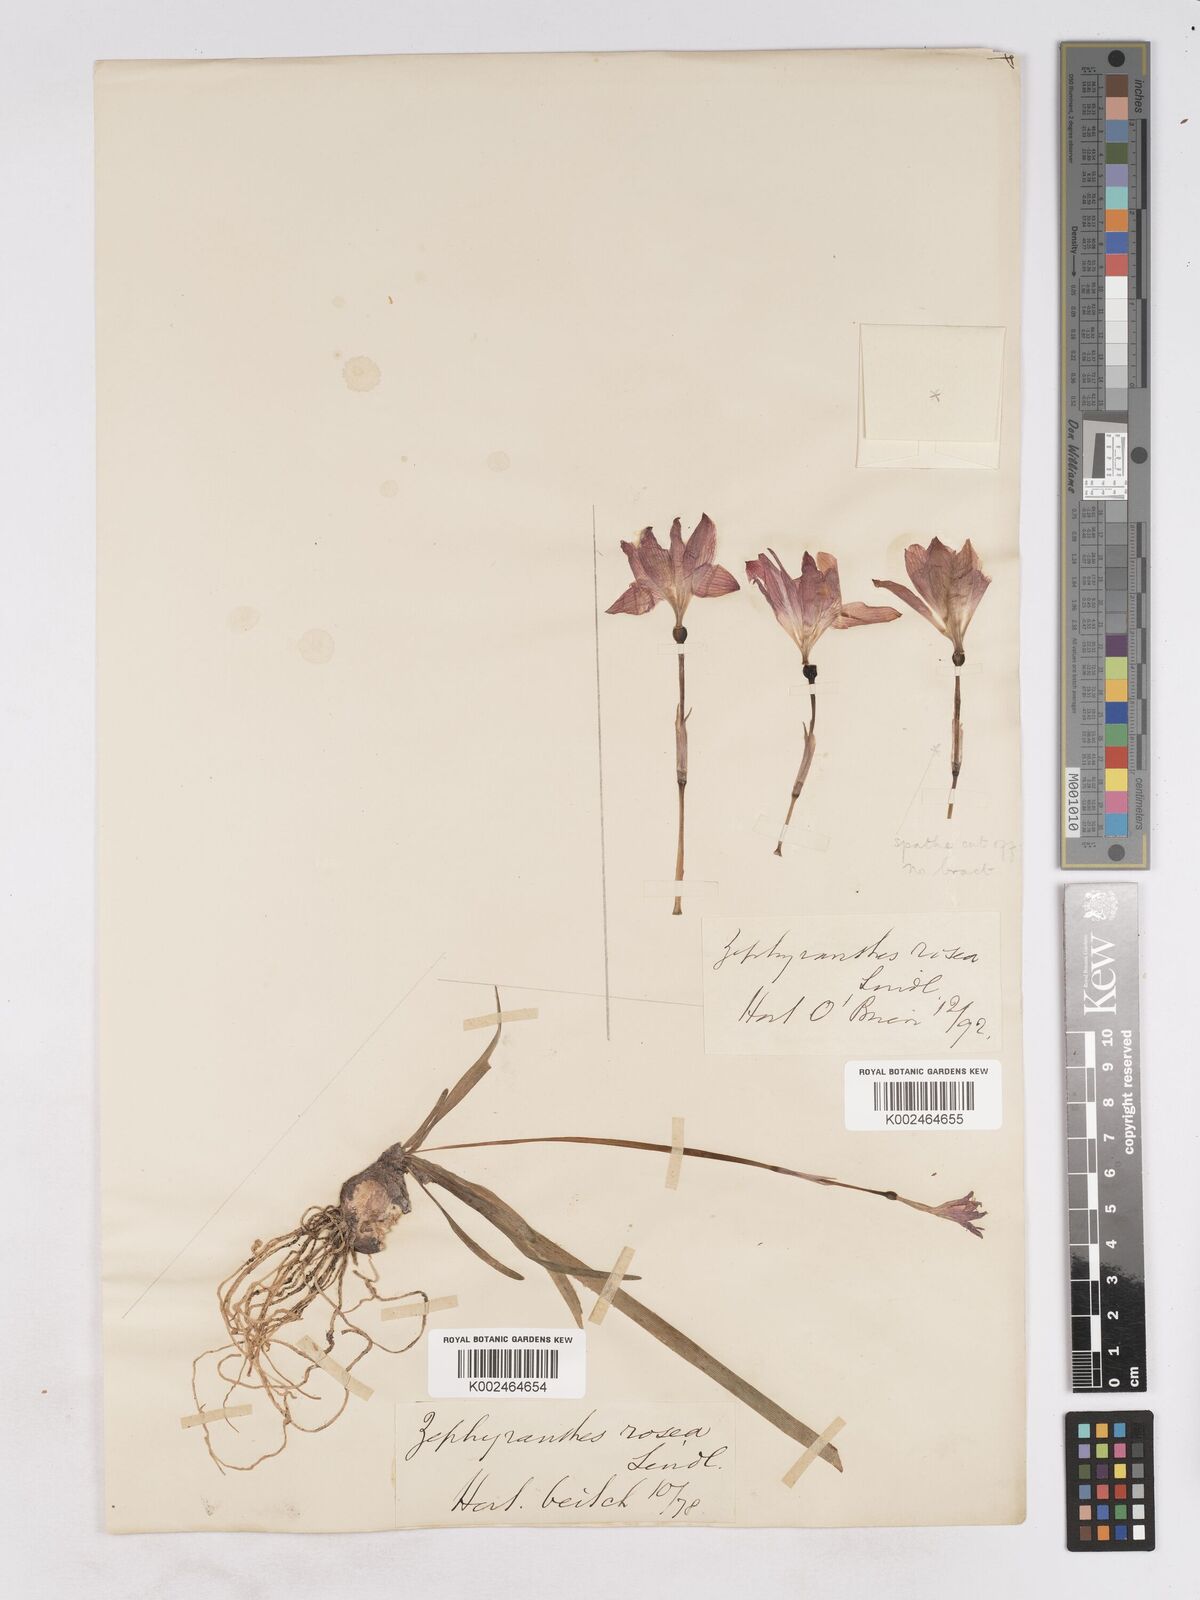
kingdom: Plantae
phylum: Tracheophyta
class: Liliopsida
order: Asparagales
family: Amaryllidaceae
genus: Zephyranthes
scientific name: Zephyranthes rosea
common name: Cuban zephyrlily
